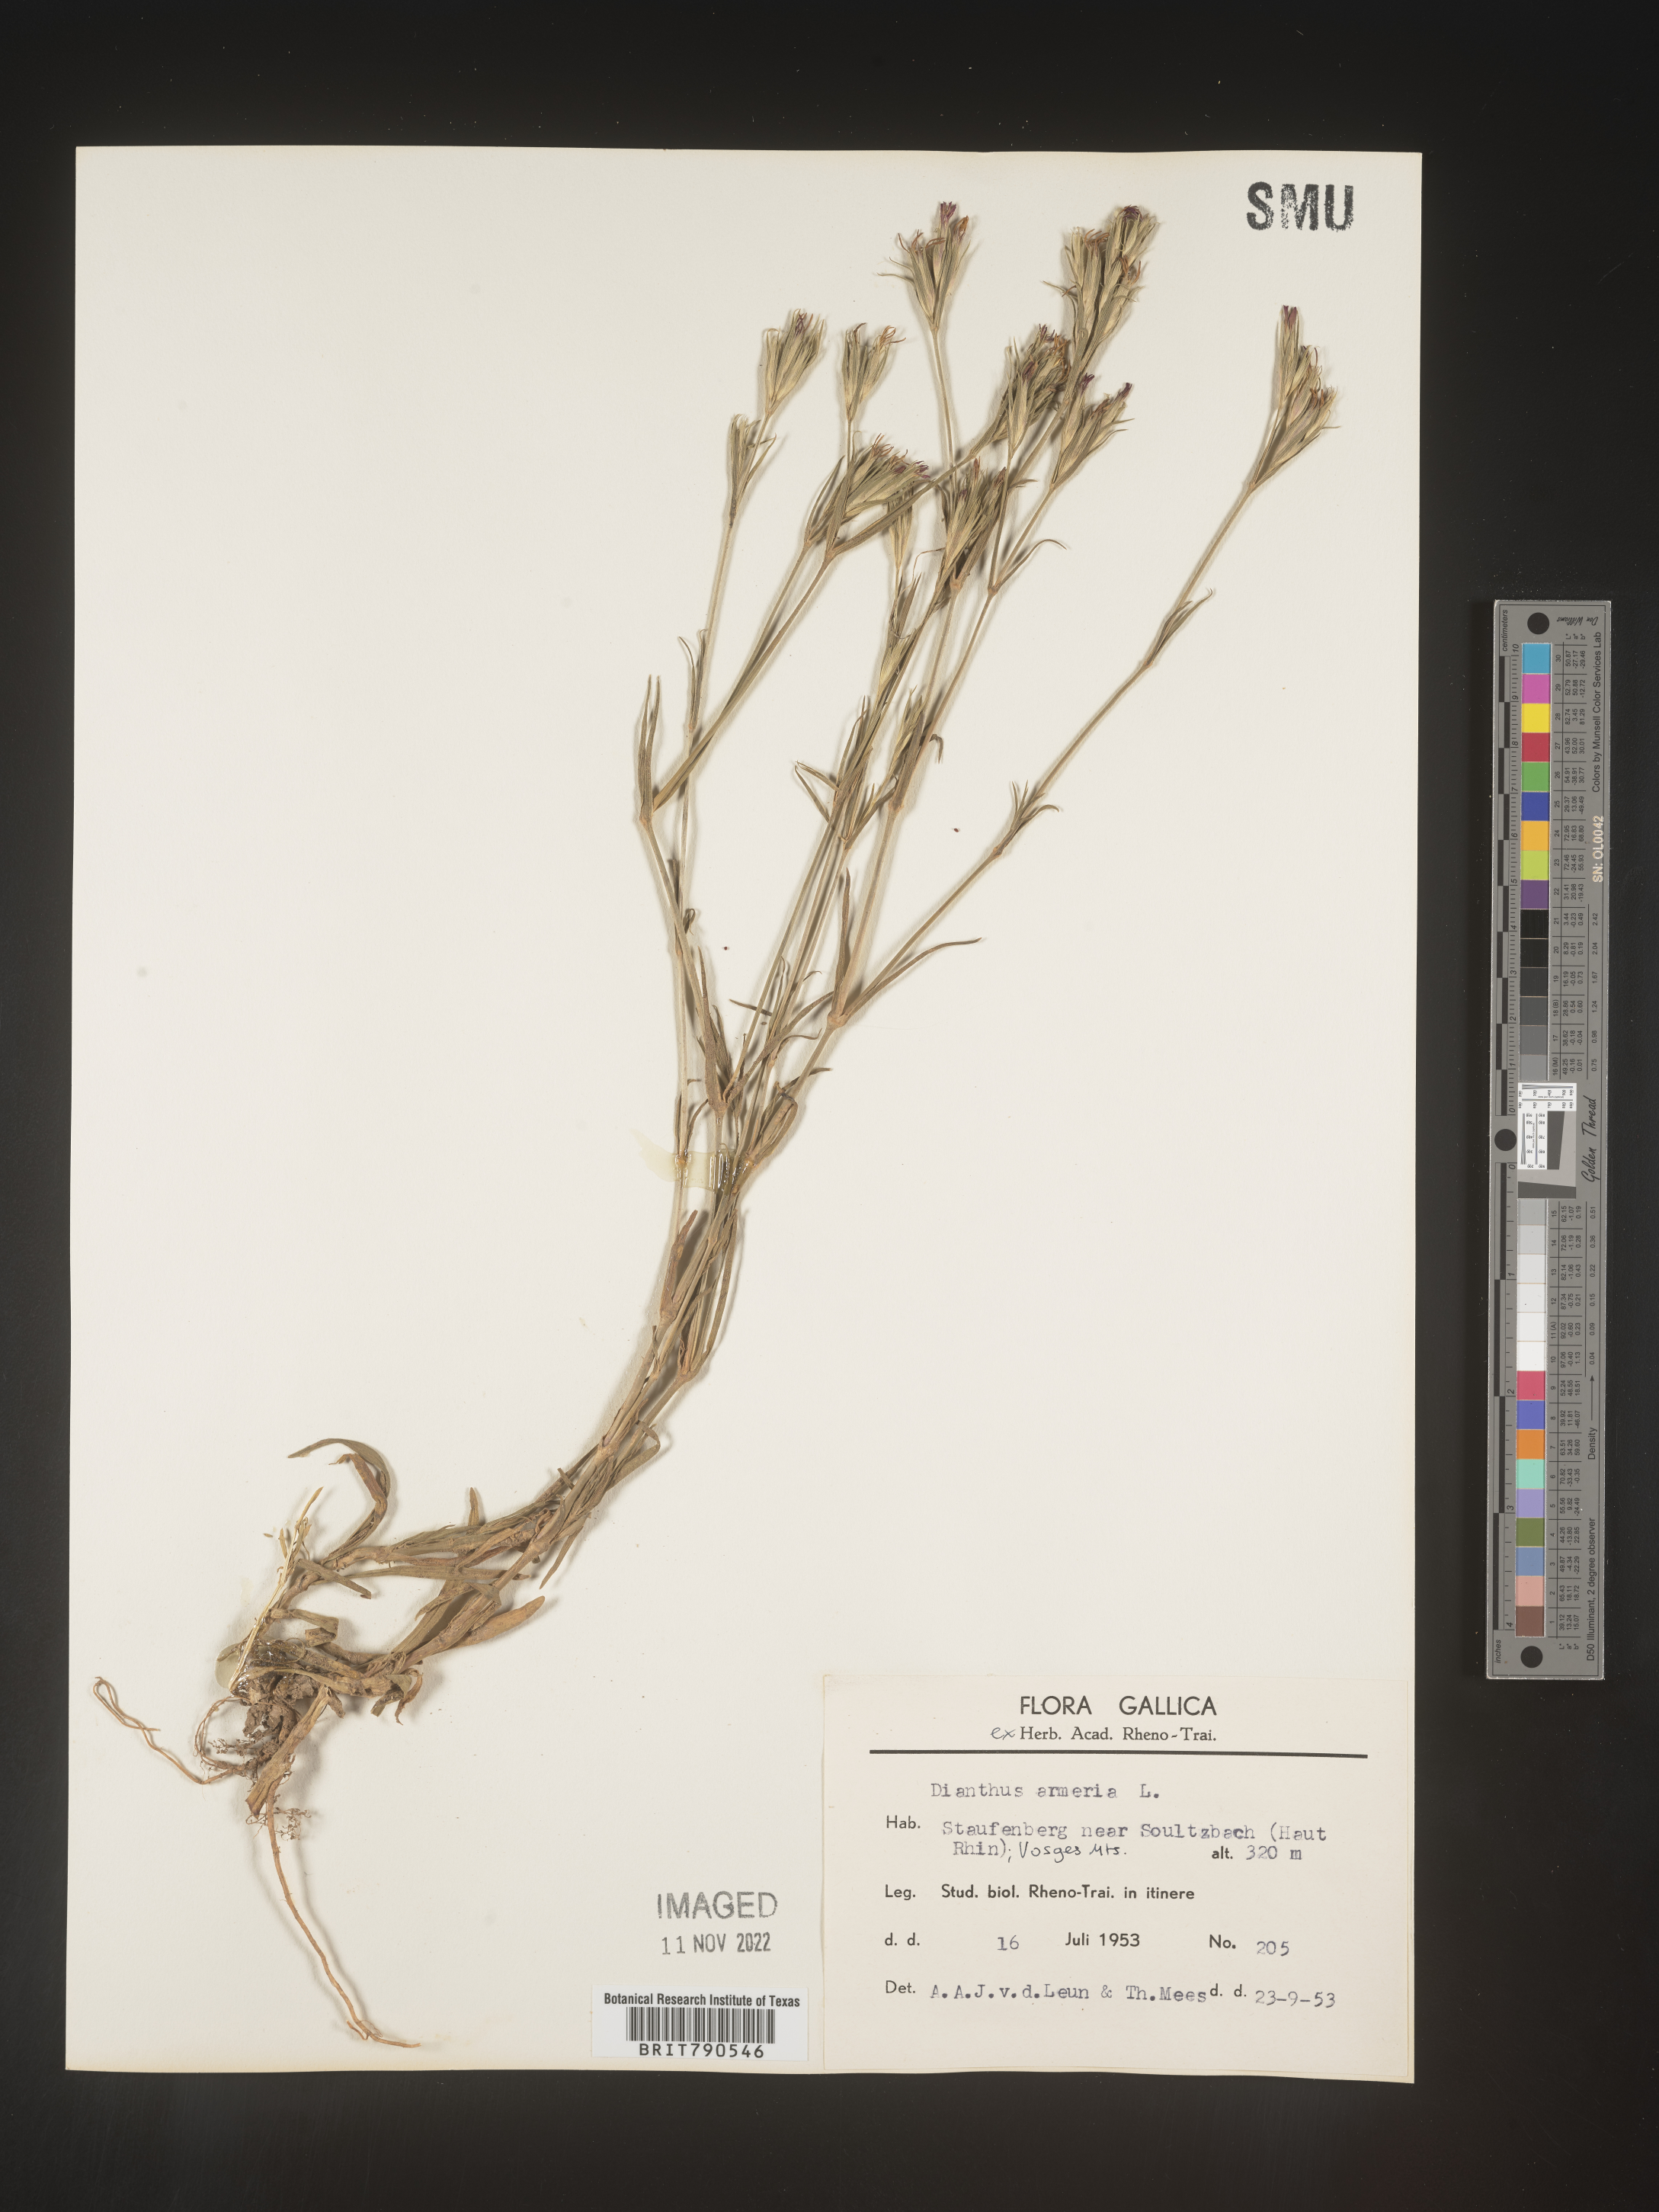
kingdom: Plantae
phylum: Tracheophyta
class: Magnoliopsida
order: Caryophyllales
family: Caryophyllaceae
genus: Dianthus
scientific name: Dianthus
